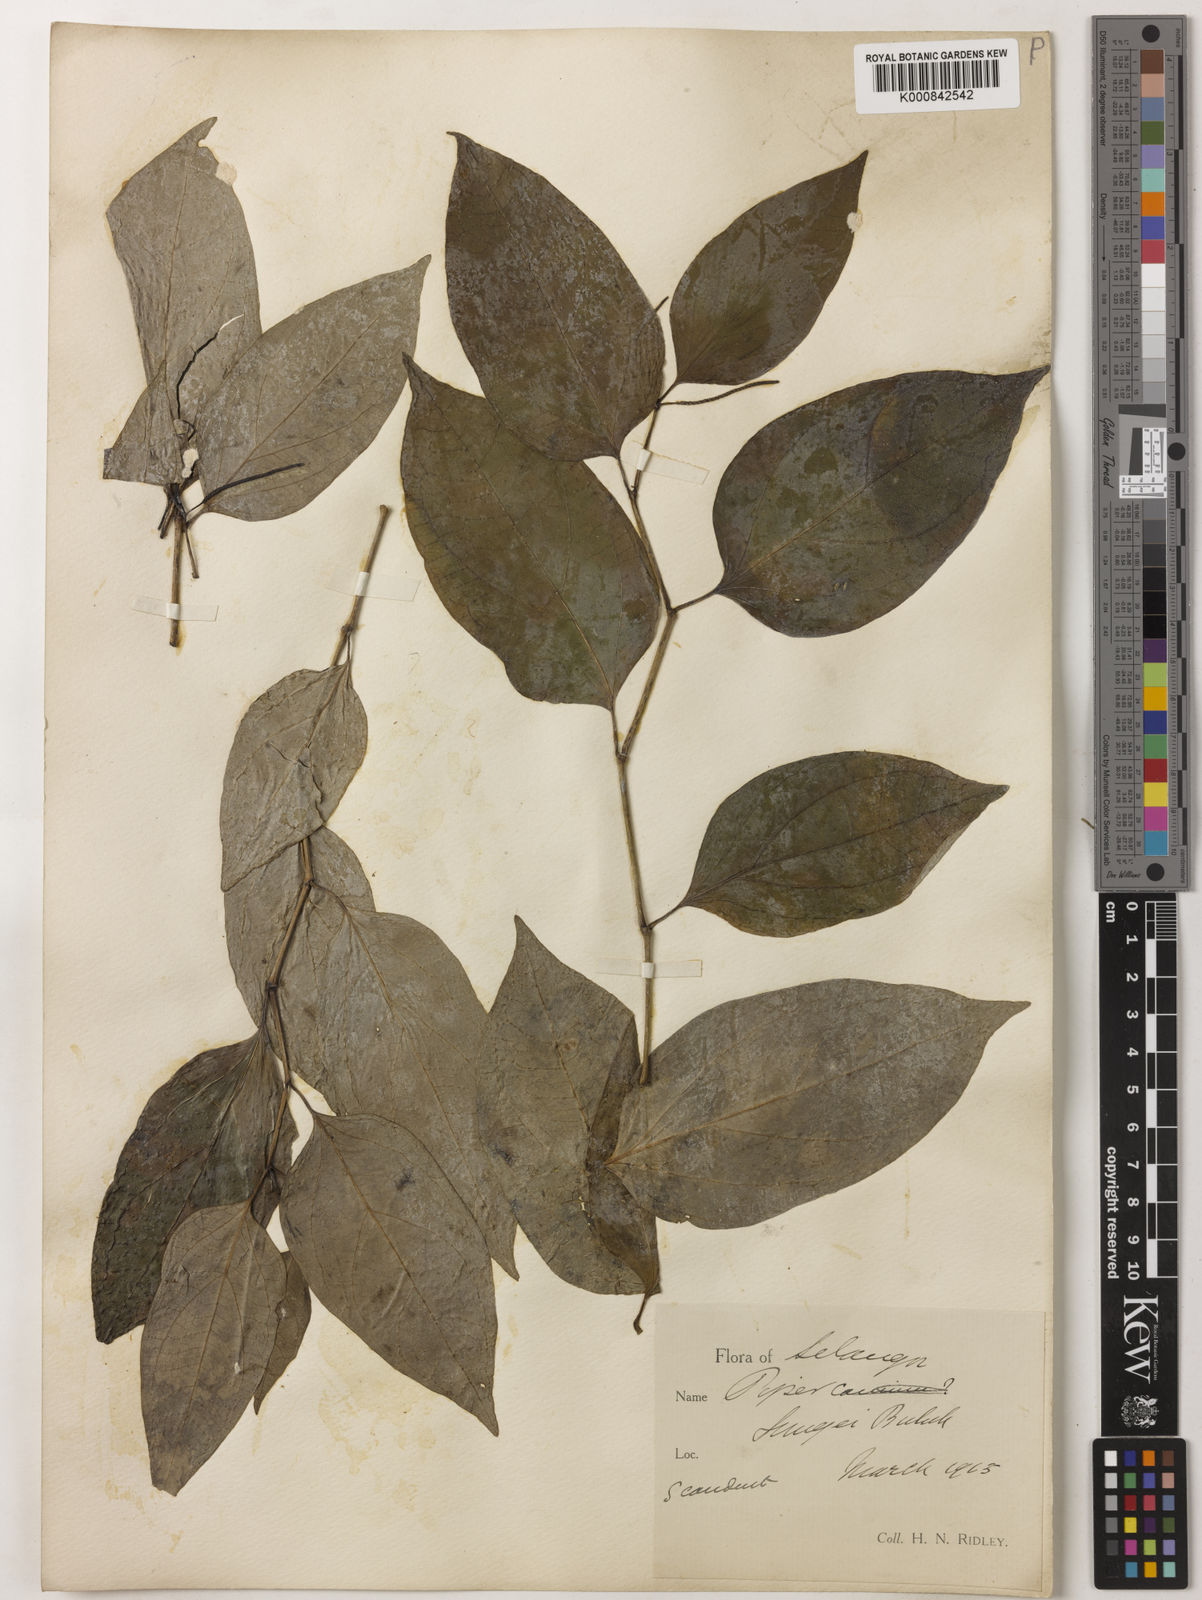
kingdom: Plantae
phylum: Tracheophyta
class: Magnoliopsida
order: Piperales
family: Piperaceae
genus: Piper
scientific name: Piper
